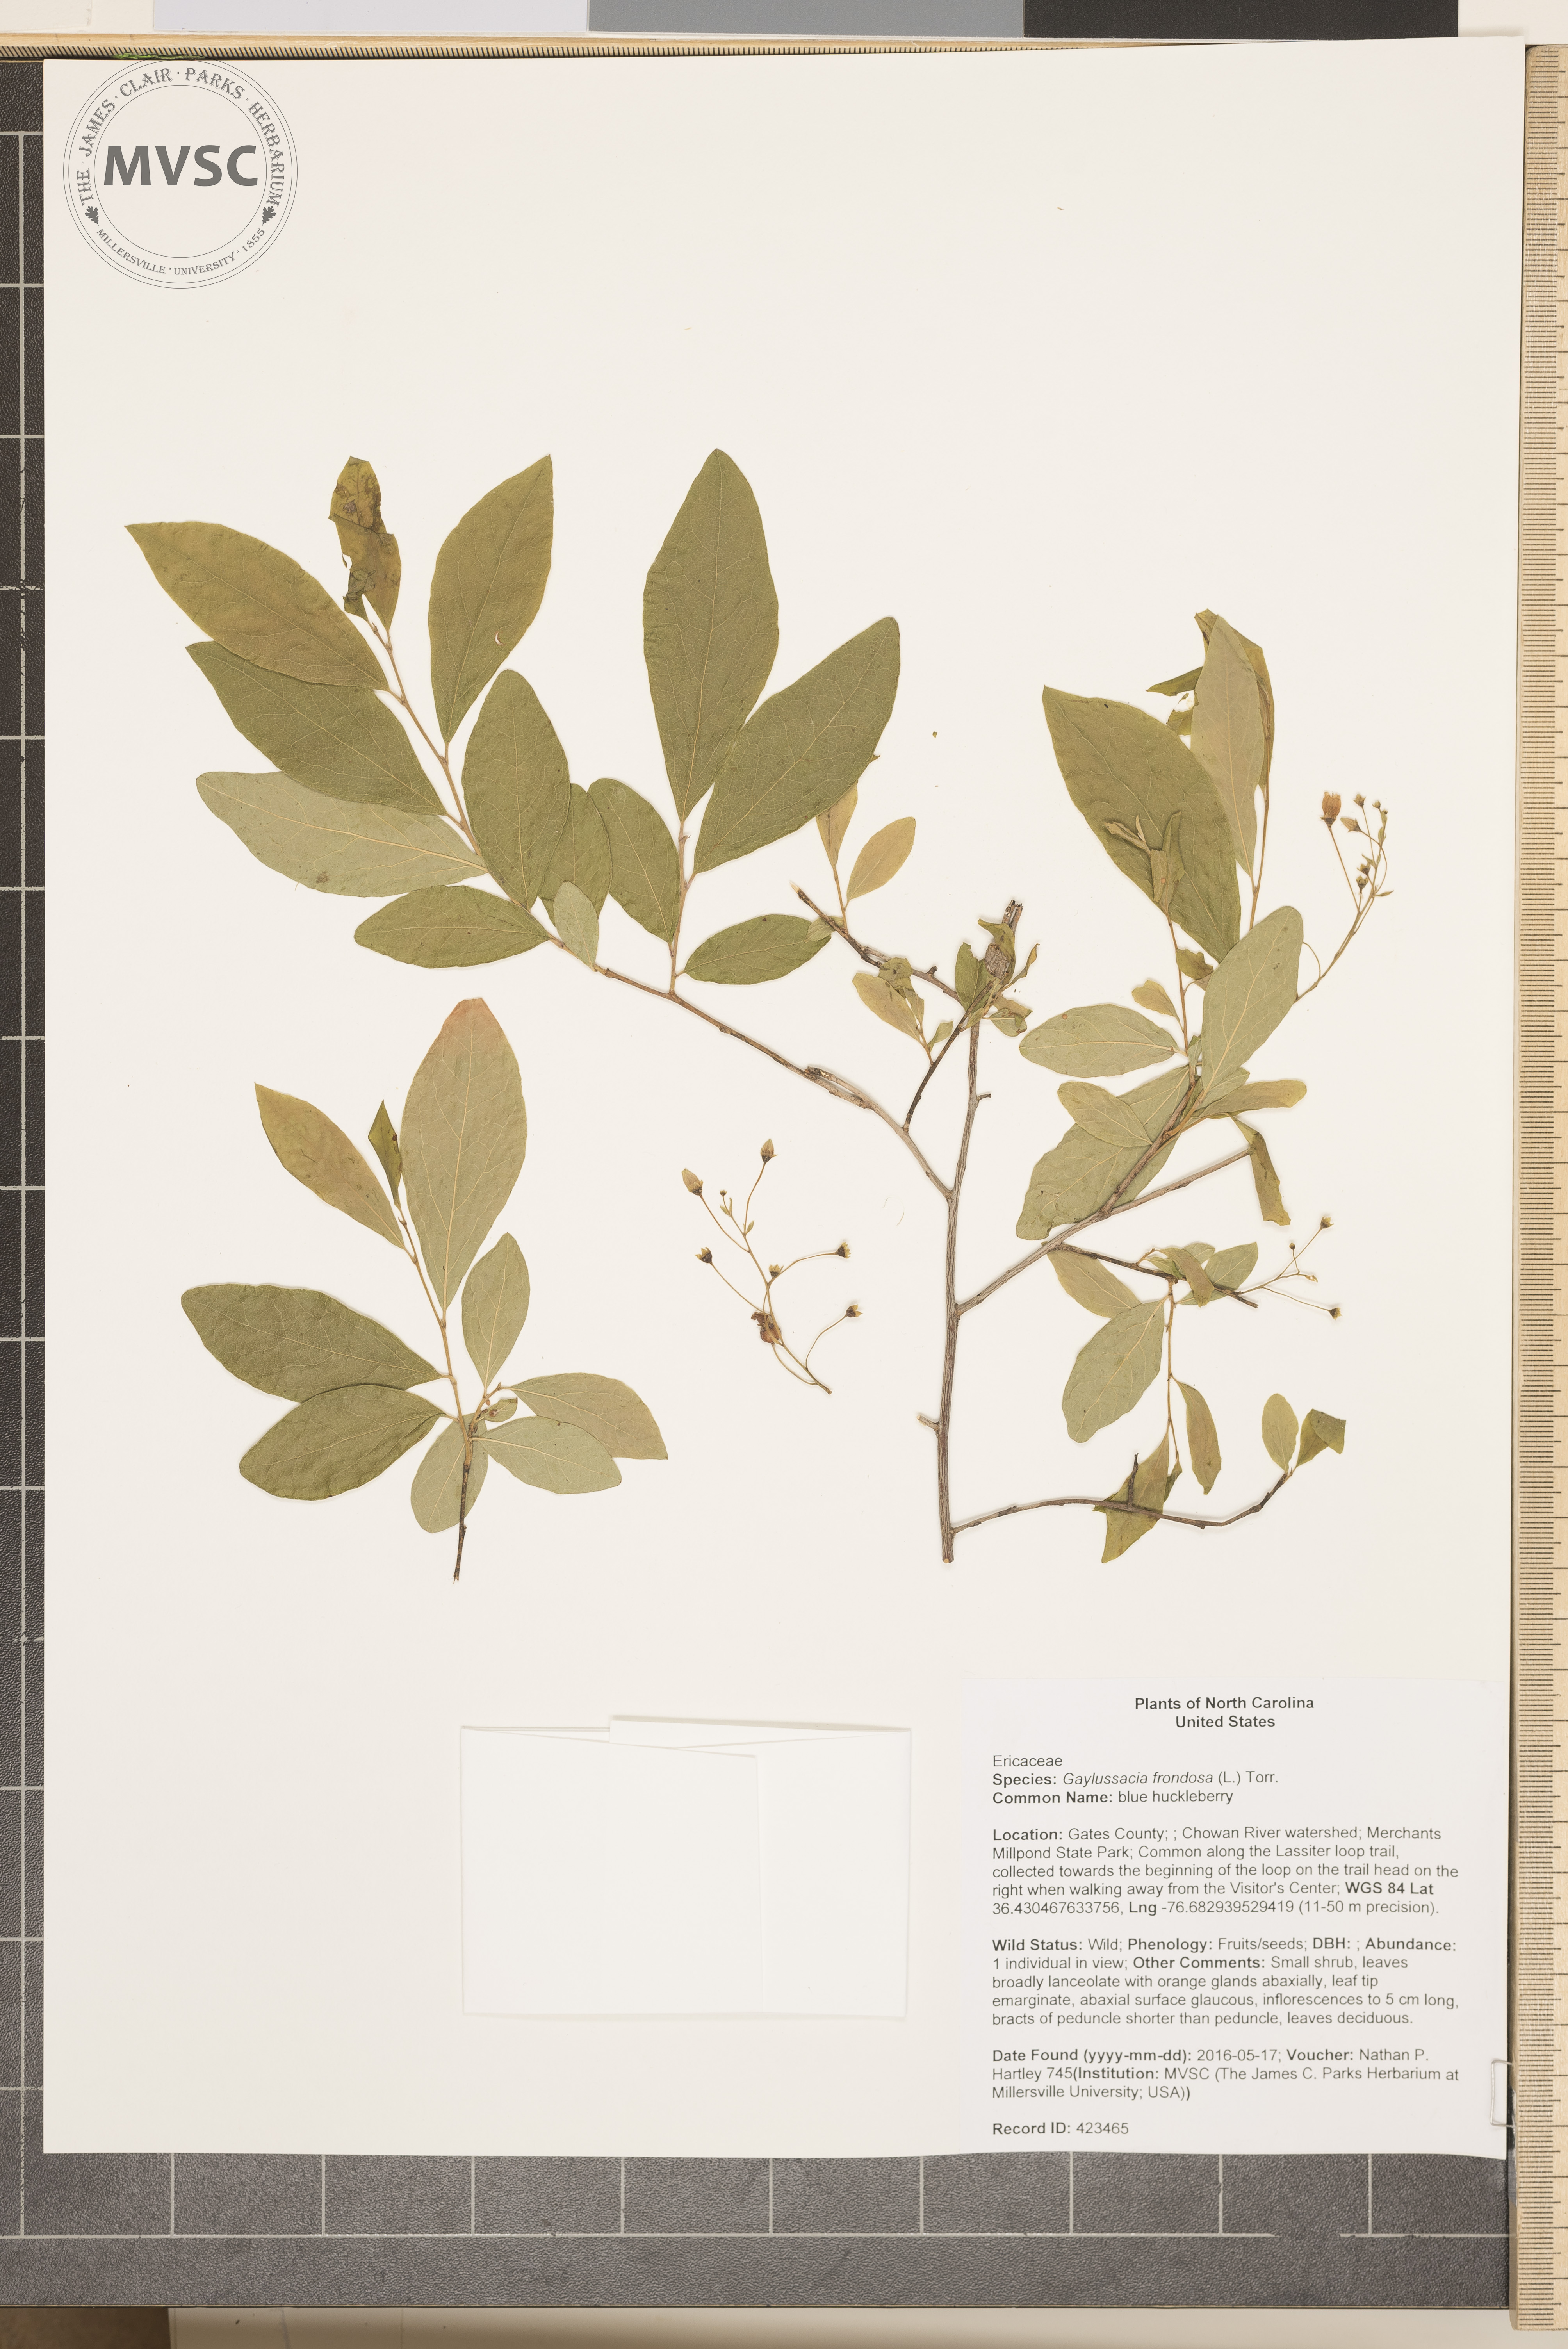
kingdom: Plantae
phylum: Tracheophyta
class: Magnoliopsida
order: Ericales
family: Ericaceae
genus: Gaylussacia
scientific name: Gaylussacia frondosa
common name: blue huckleberry
